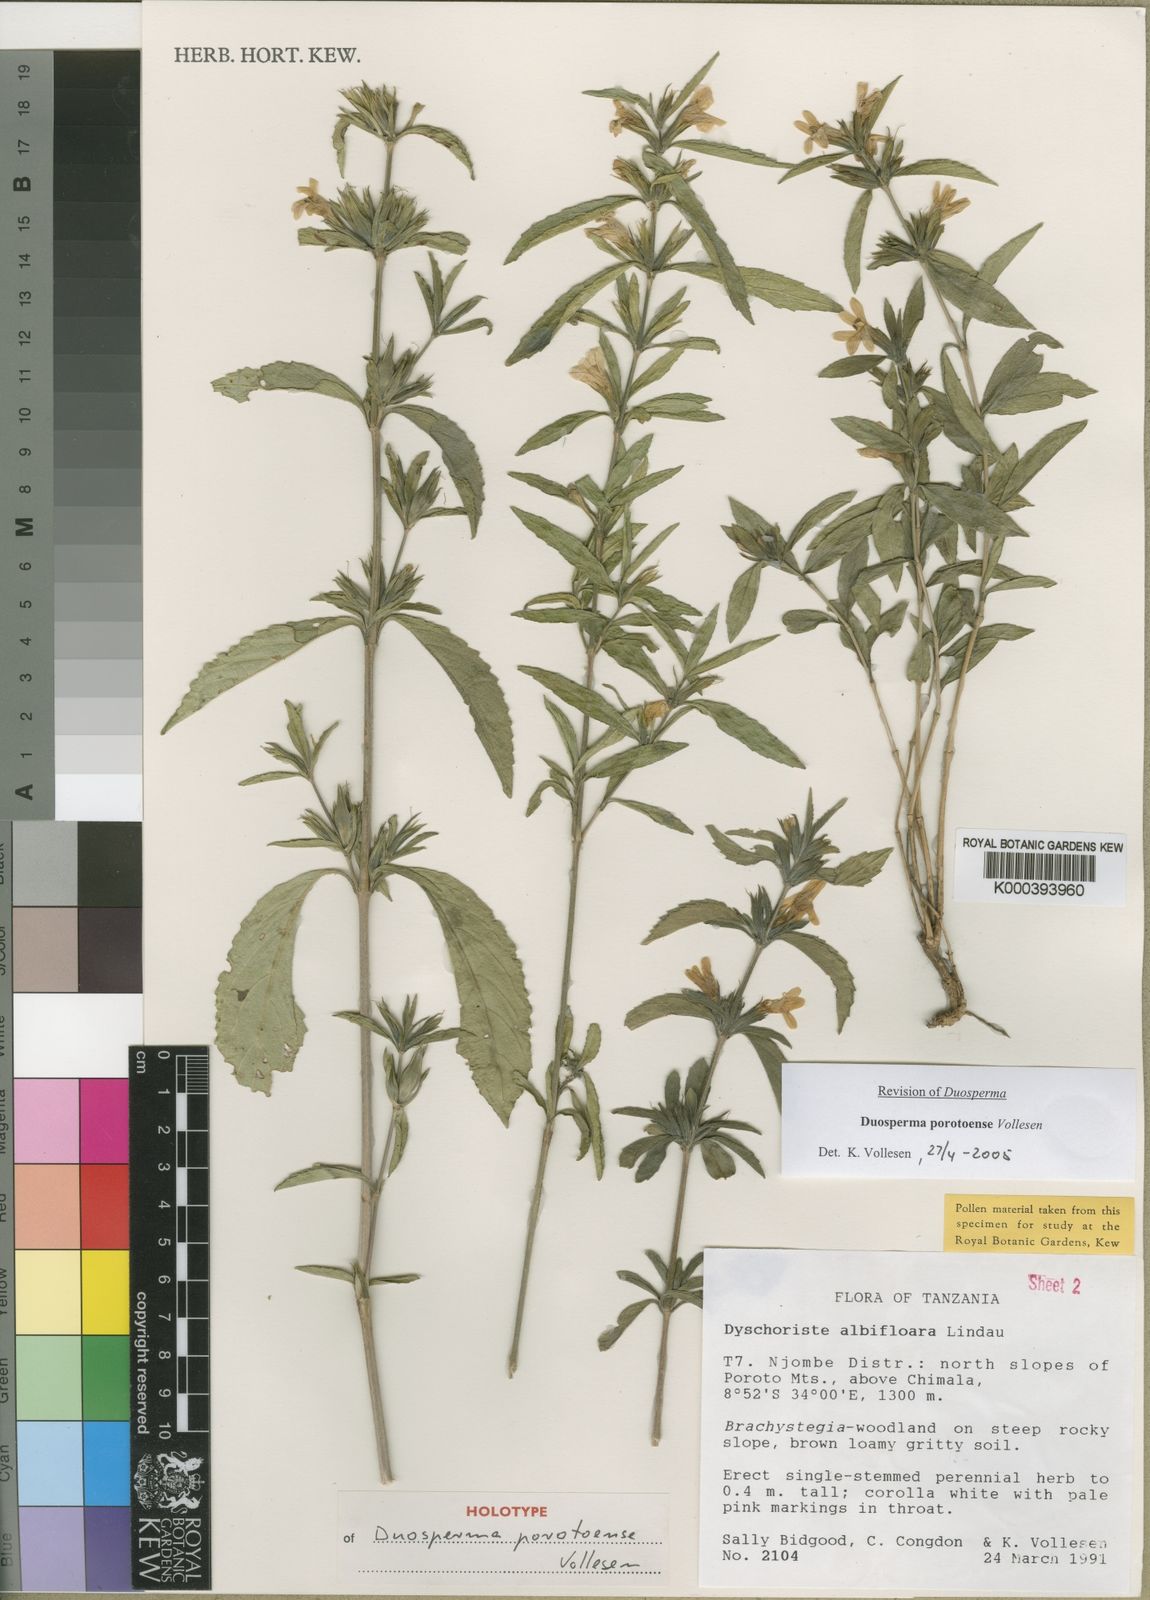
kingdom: Plantae
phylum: Tracheophyta
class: Magnoliopsida
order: Lamiales
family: Acanthaceae
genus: Duosperma
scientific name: Duosperma porotoense
